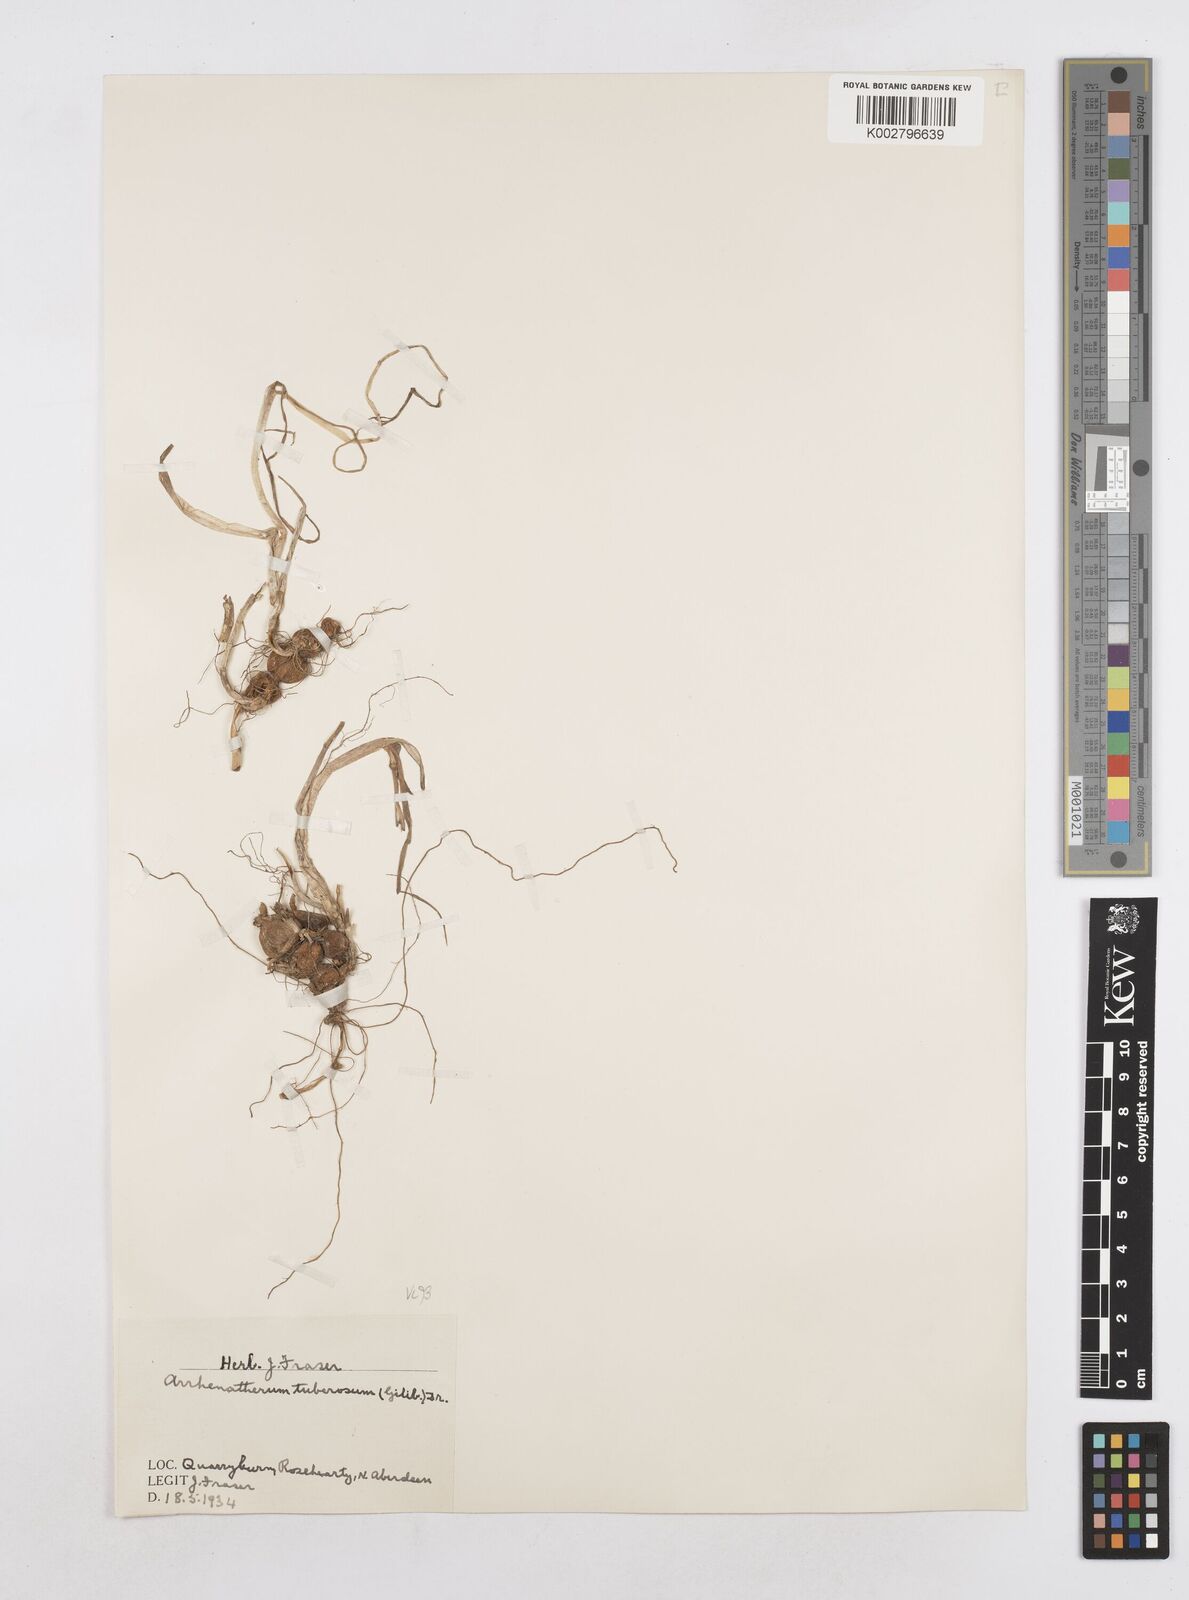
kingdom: Plantae
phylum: Tracheophyta
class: Liliopsida
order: Poales
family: Poaceae
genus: Arrhenatherum
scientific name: Arrhenatherum elatius
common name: Tall oatgrass
